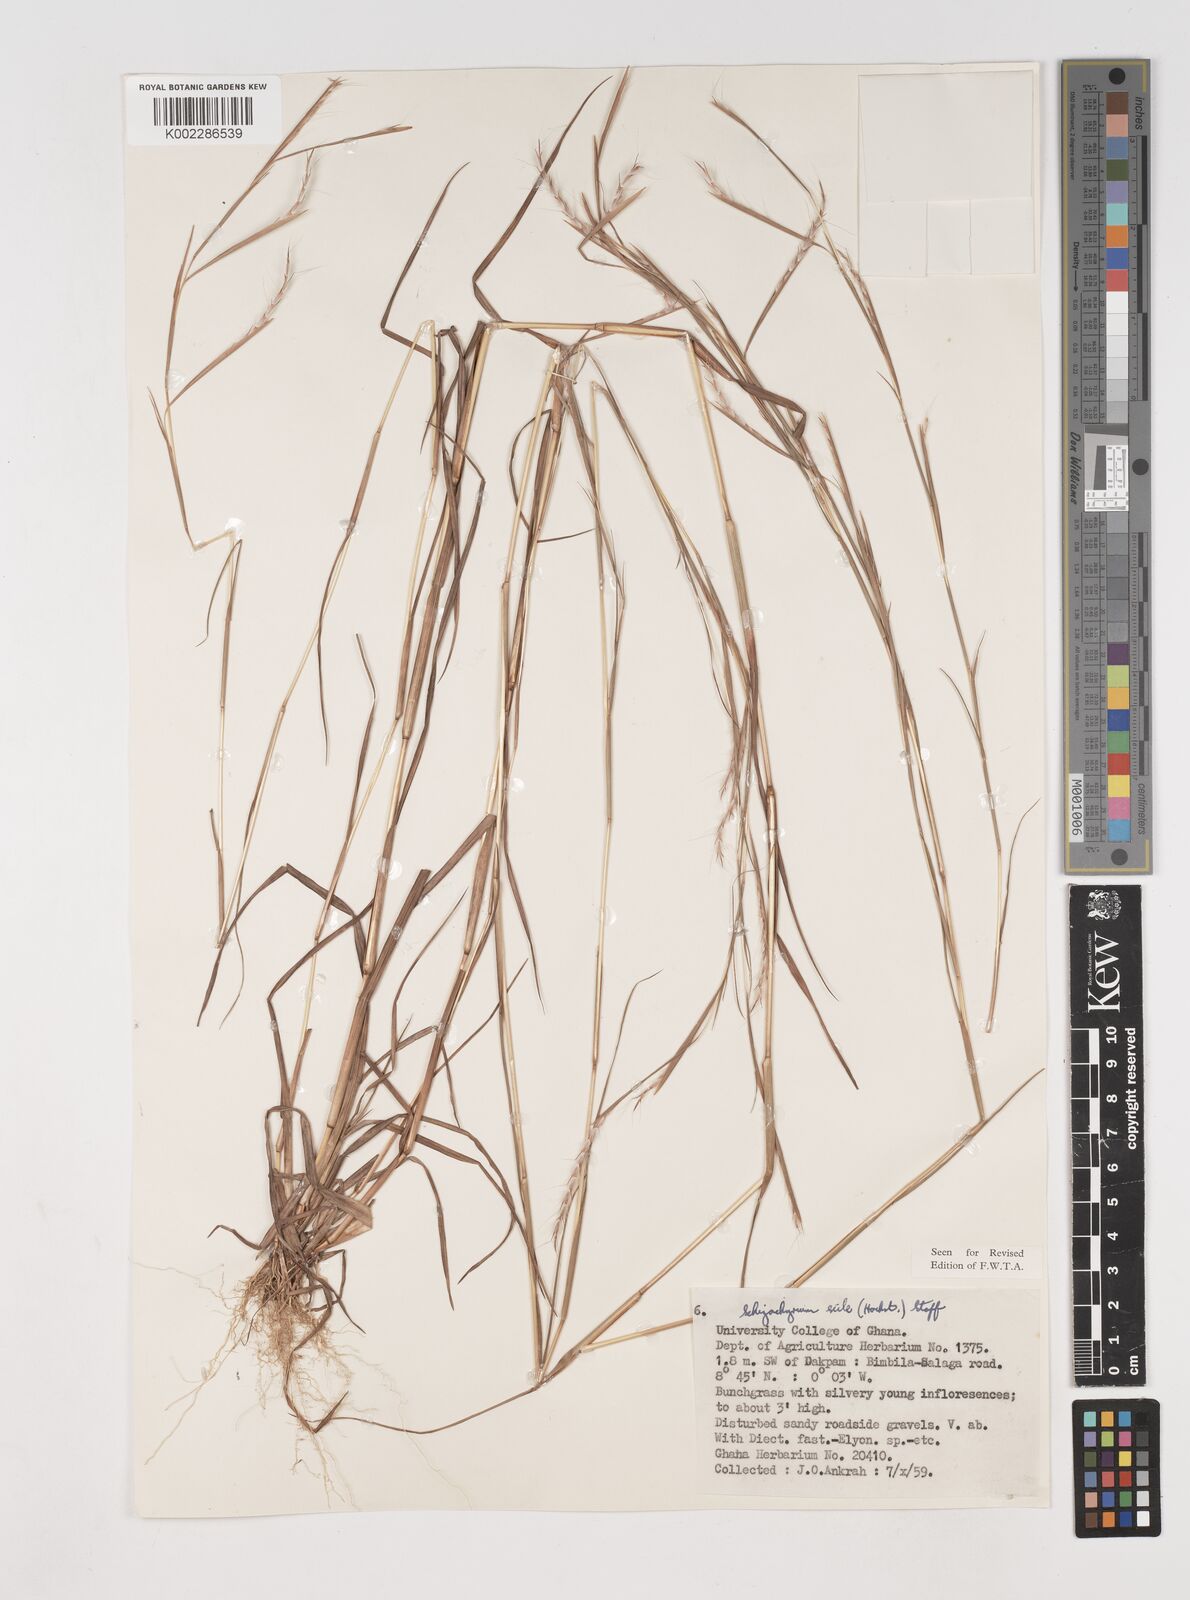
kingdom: Plantae
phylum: Tracheophyta
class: Liliopsida
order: Poales
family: Poaceae
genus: Schizachyrium
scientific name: Schizachyrium exile
